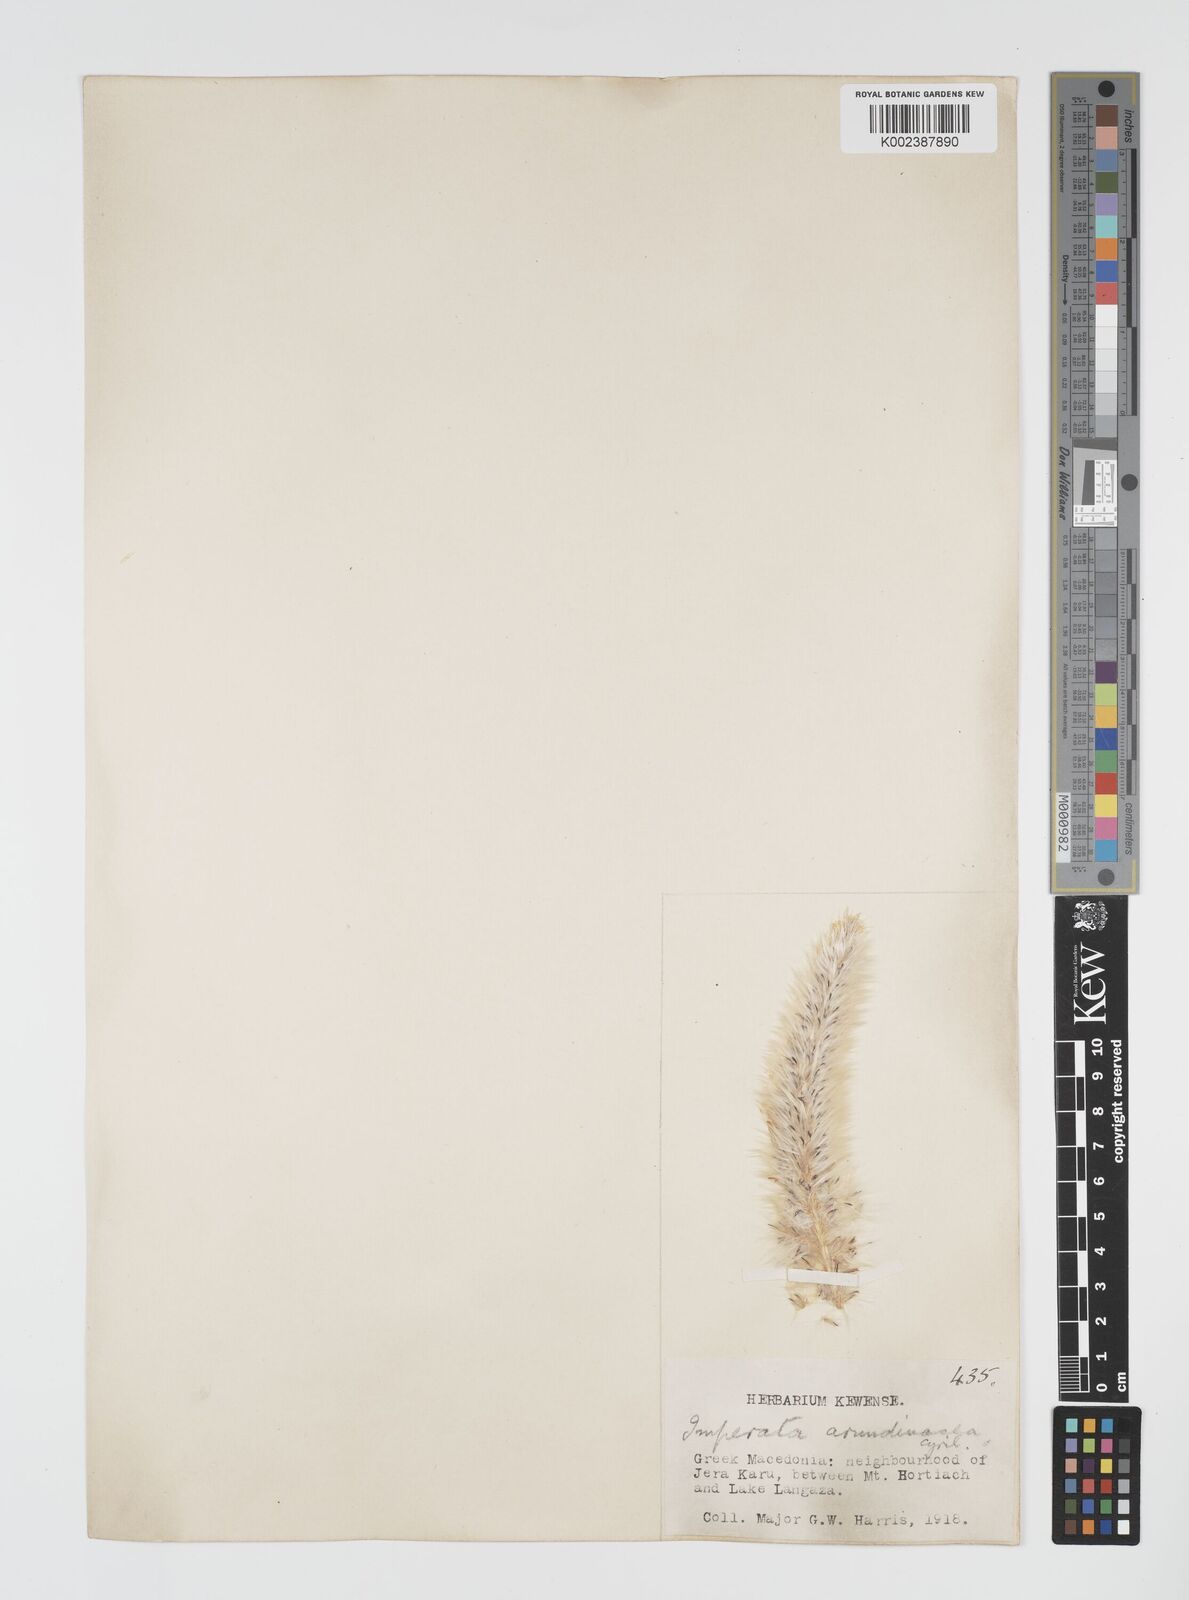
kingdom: Plantae
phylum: Tracheophyta
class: Liliopsida
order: Poales
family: Poaceae
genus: Imperata
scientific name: Imperata cylindrica
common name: Cogongrass
